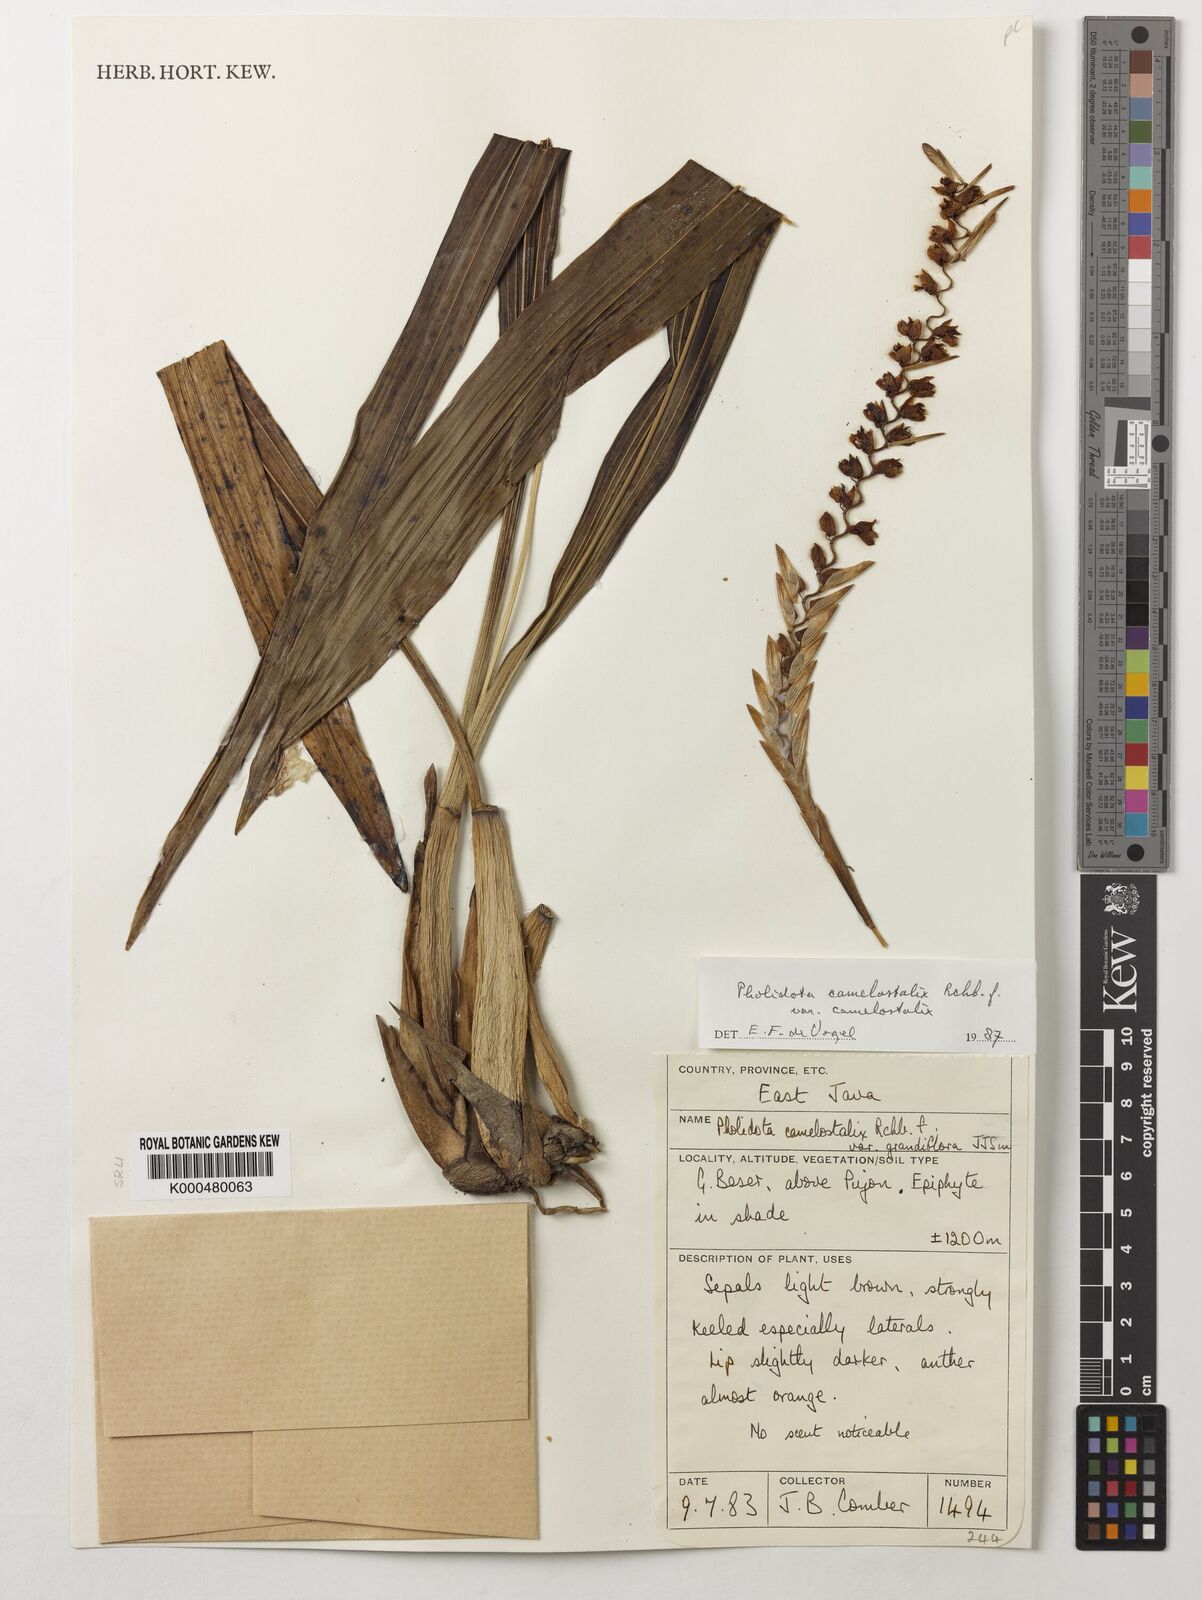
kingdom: Plantae
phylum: Tracheophyta
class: Liliopsida
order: Asparagales
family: Orchidaceae
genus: Coelogyne
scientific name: Coelogyne camelostalix
